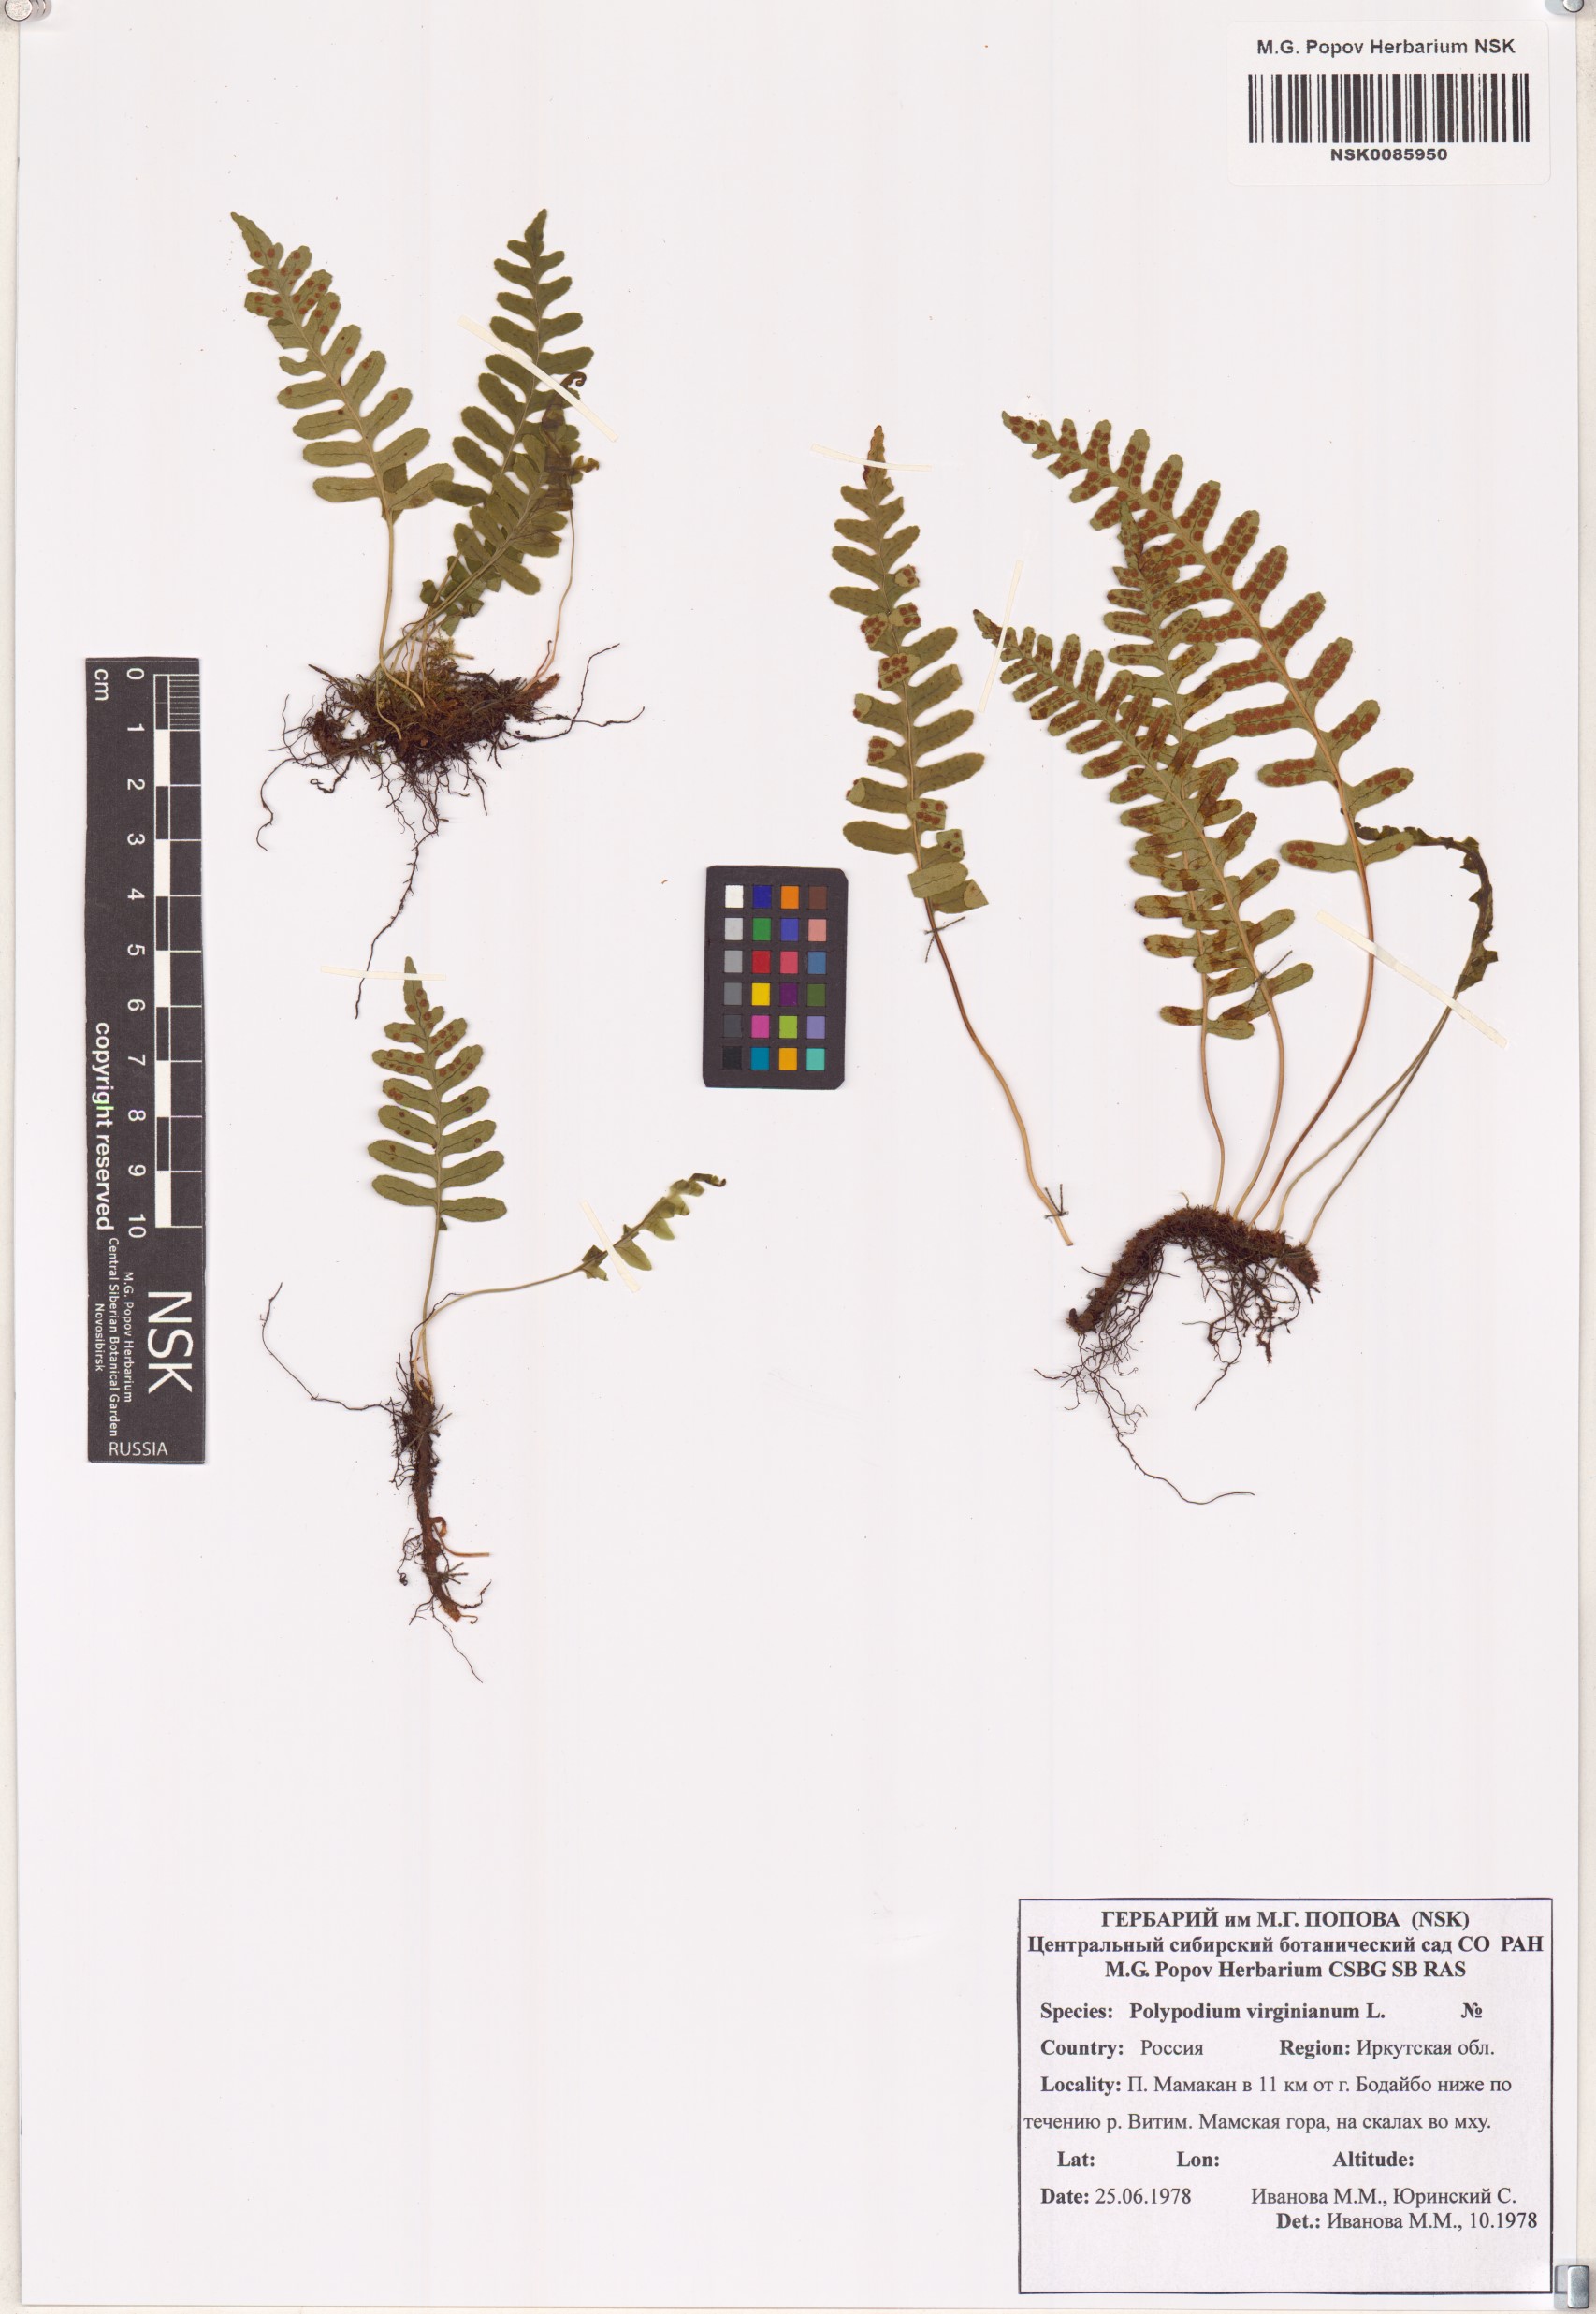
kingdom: Plantae
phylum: Tracheophyta
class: Polypodiopsida
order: Polypodiales
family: Polypodiaceae
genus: Polypodium
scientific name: Polypodium virginianum
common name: American wall fern
